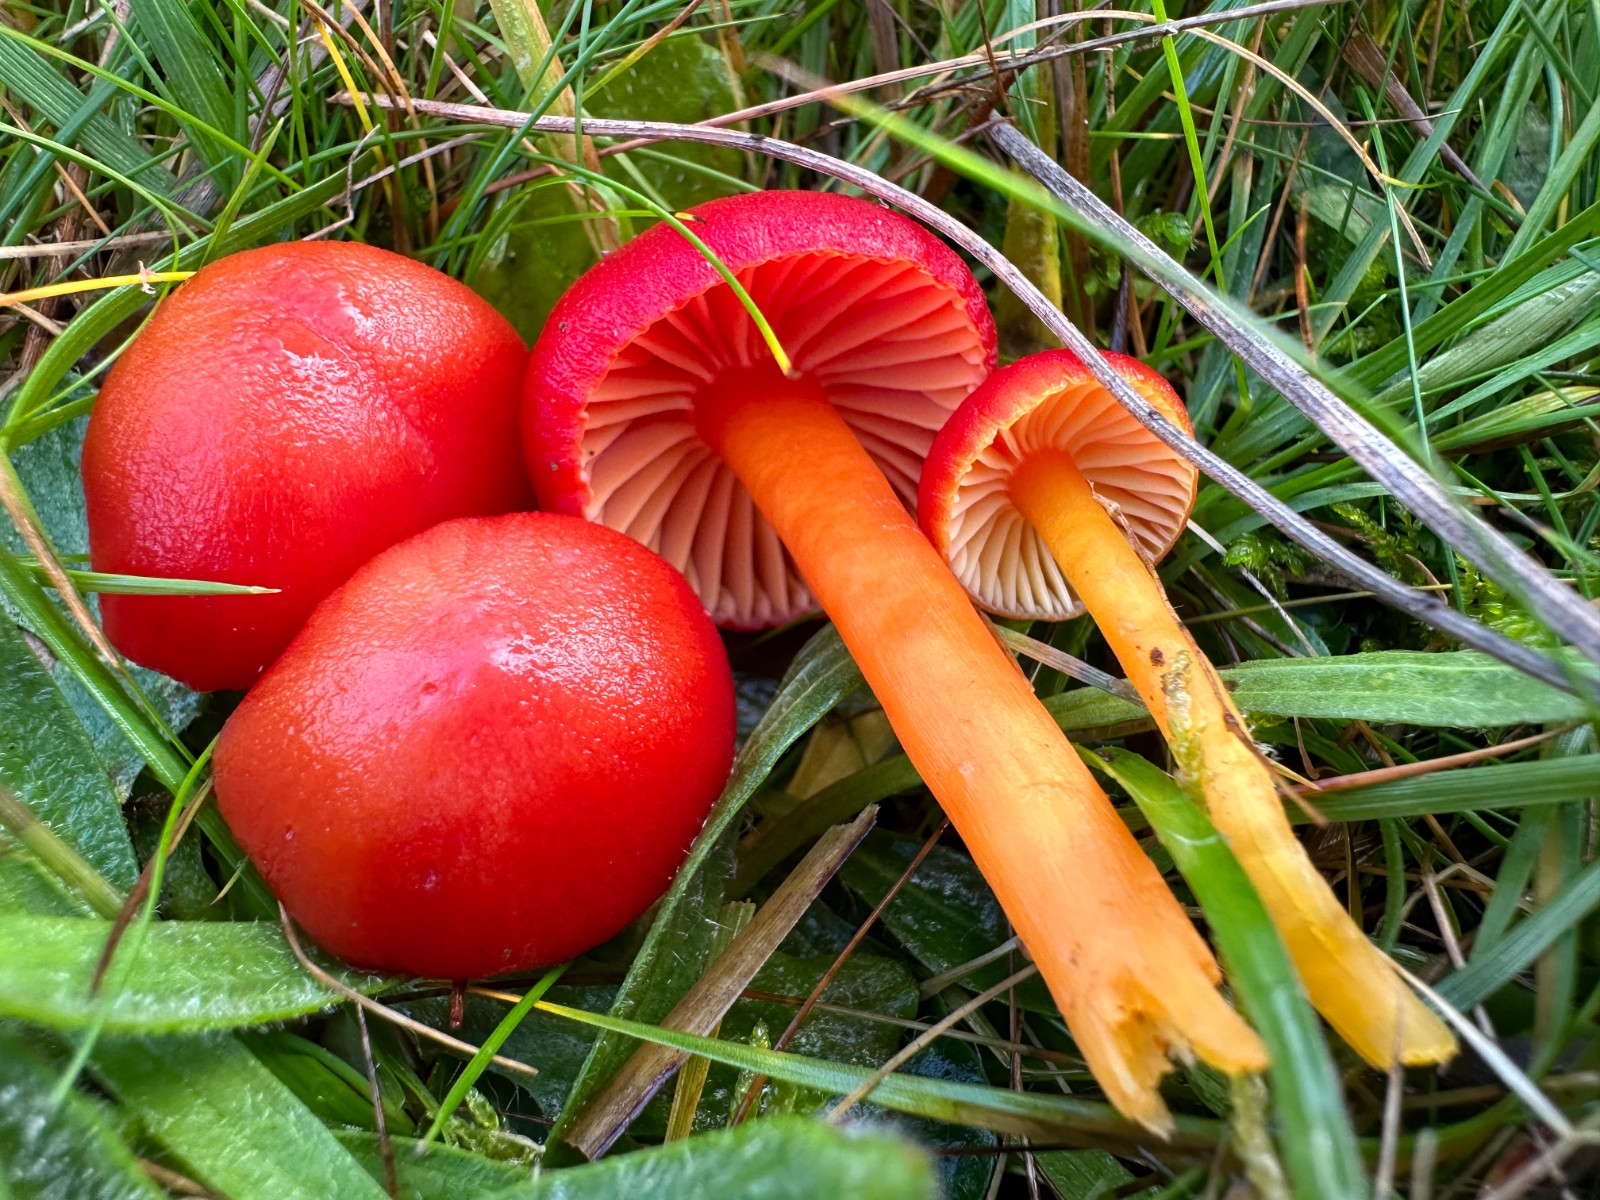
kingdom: Fungi
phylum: Basidiomycota
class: Agaricomycetes
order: Agaricales
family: Hygrophoraceae
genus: Hygrocybe
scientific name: Hygrocybe miniata
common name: mønje-vokshat
